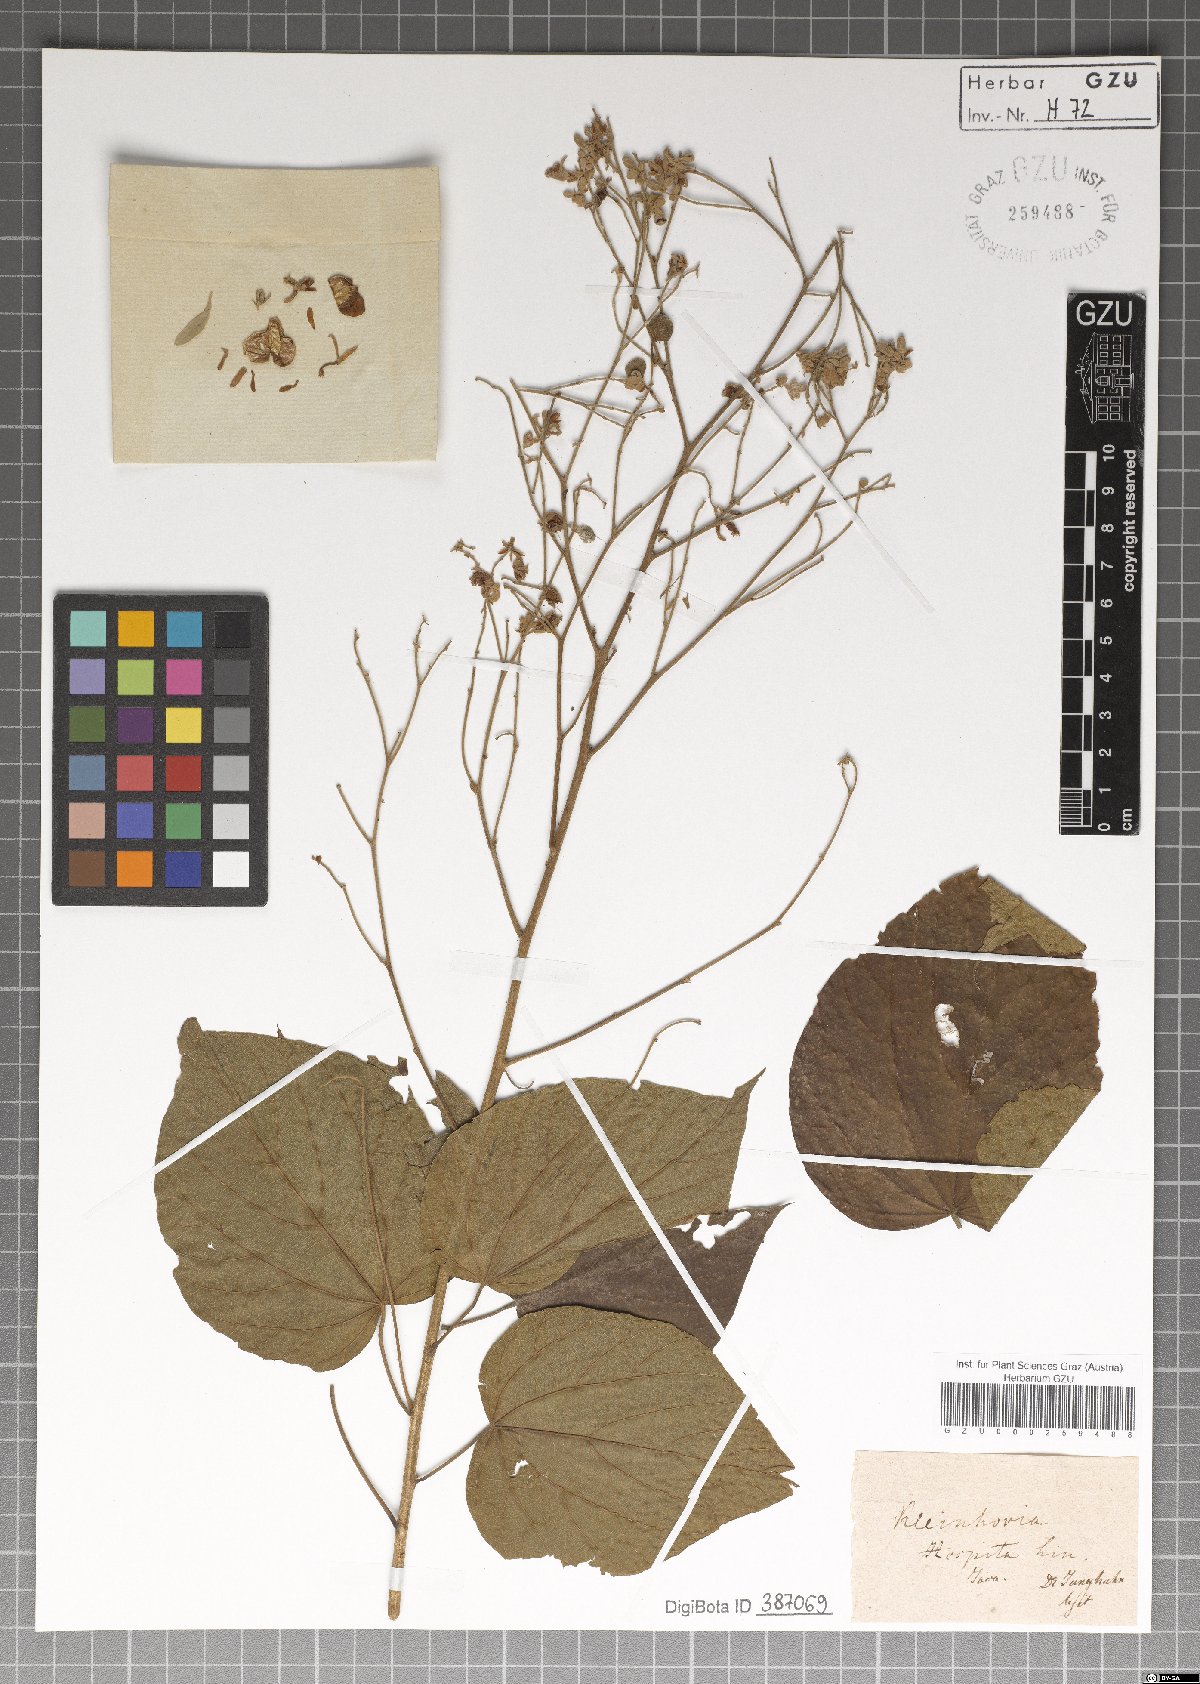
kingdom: Plantae
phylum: Tracheophyta
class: Magnoliopsida
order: Malvales
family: Malvaceae
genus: Kleinhovia
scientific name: Kleinhovia hospita
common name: Guest-tree
